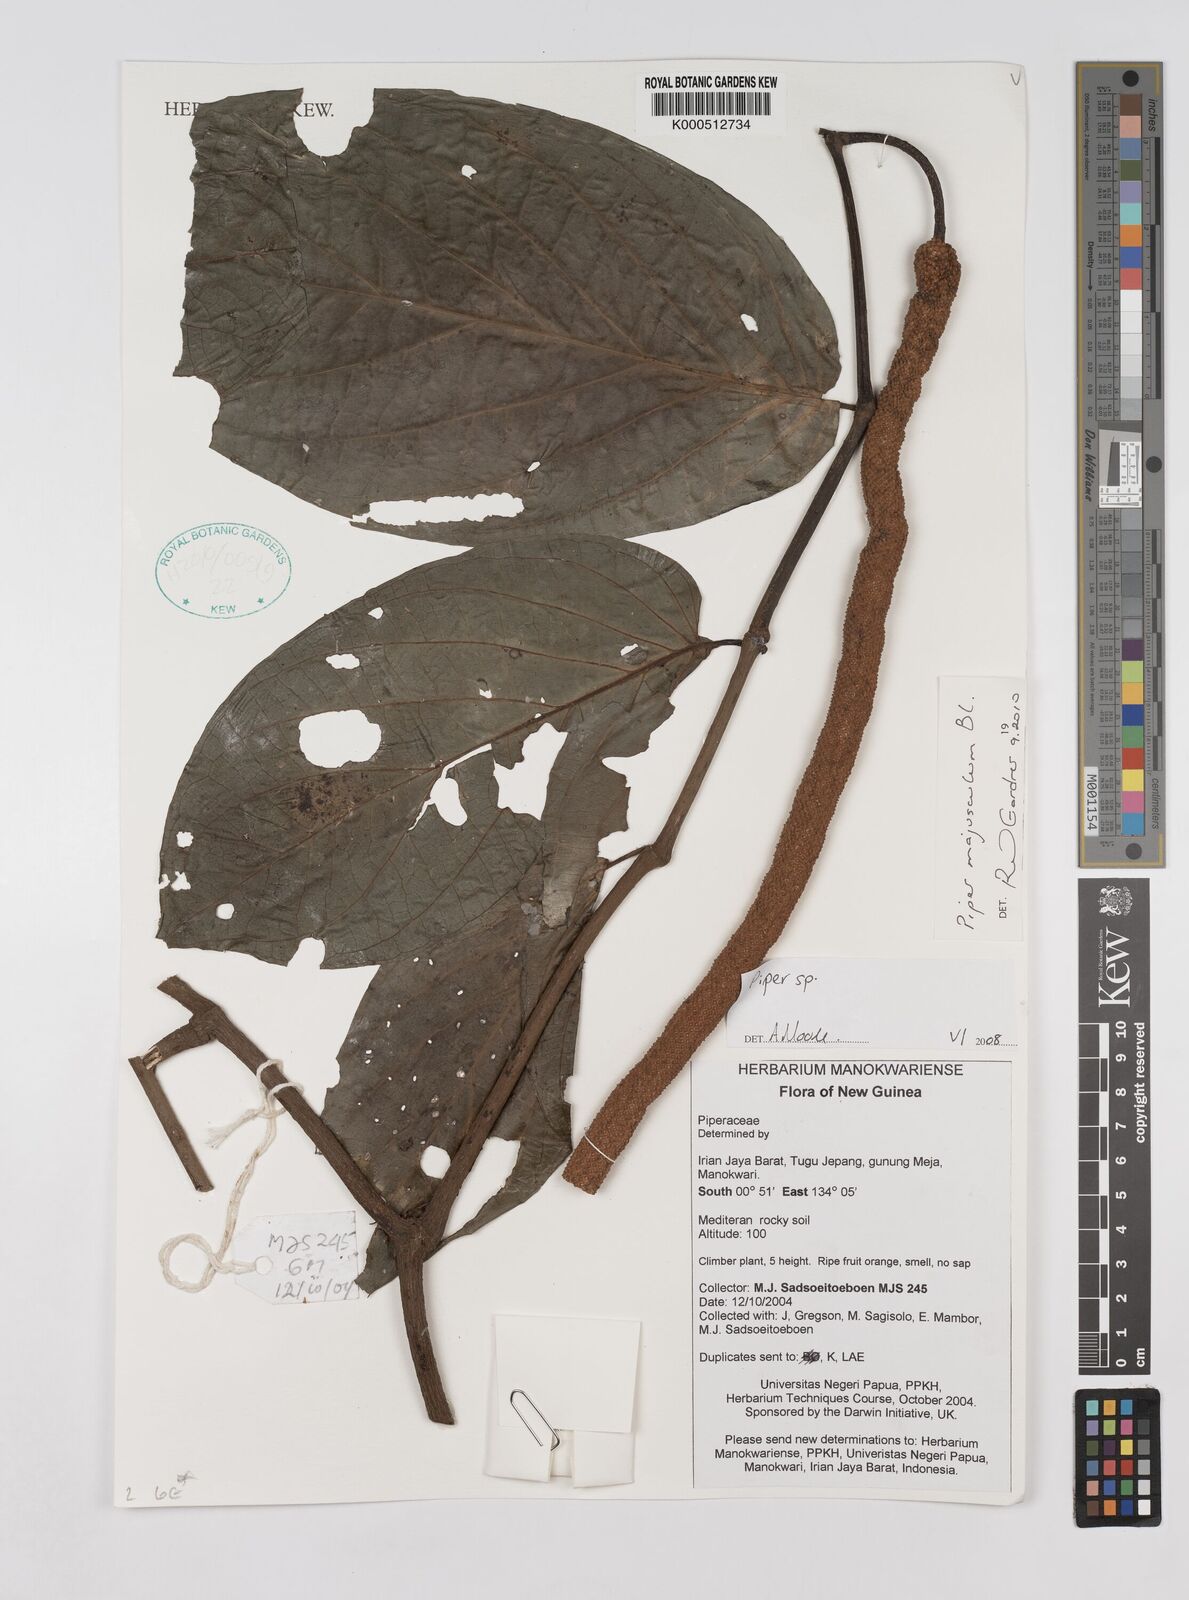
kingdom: Plantae
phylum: Tracheophyta
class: Magnoliopsida
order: Piperales
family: Piperaceae
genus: Piper
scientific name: Piper
